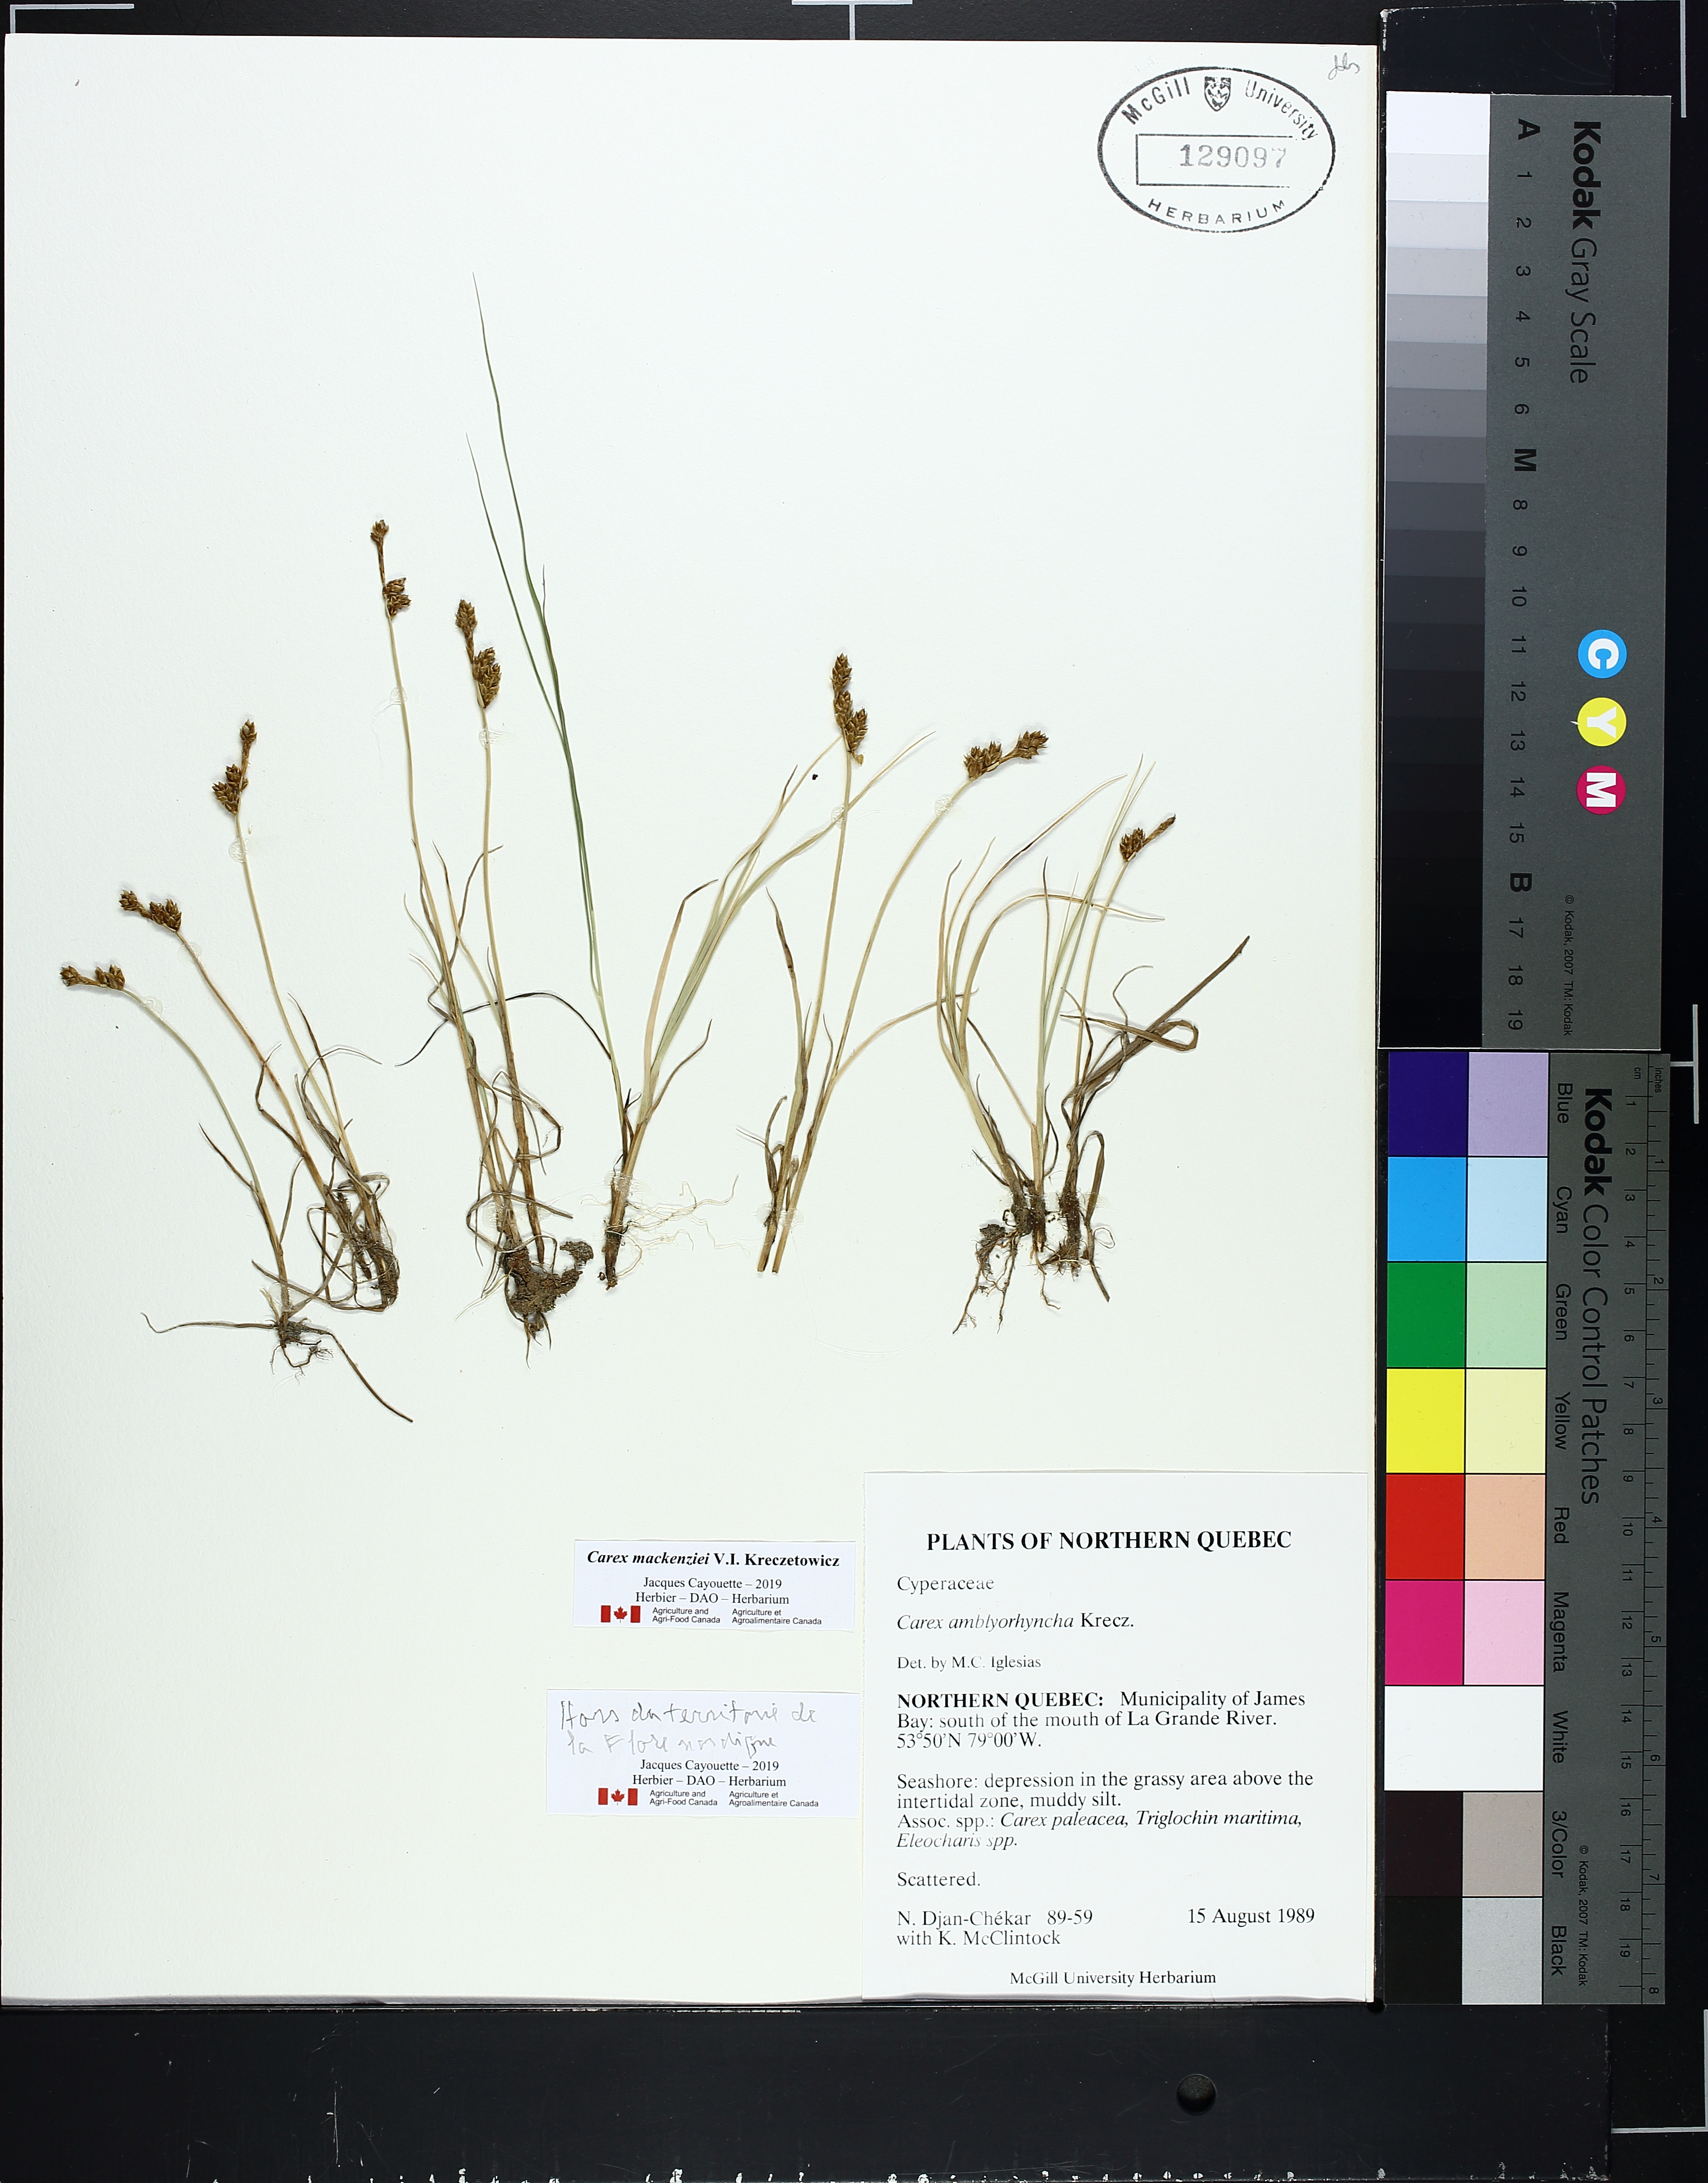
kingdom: Plantae
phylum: Tracheophyta
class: Liliopsida
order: Poales
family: Cyperaceae
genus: Carex
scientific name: Carex marina
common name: Seashore sedge
